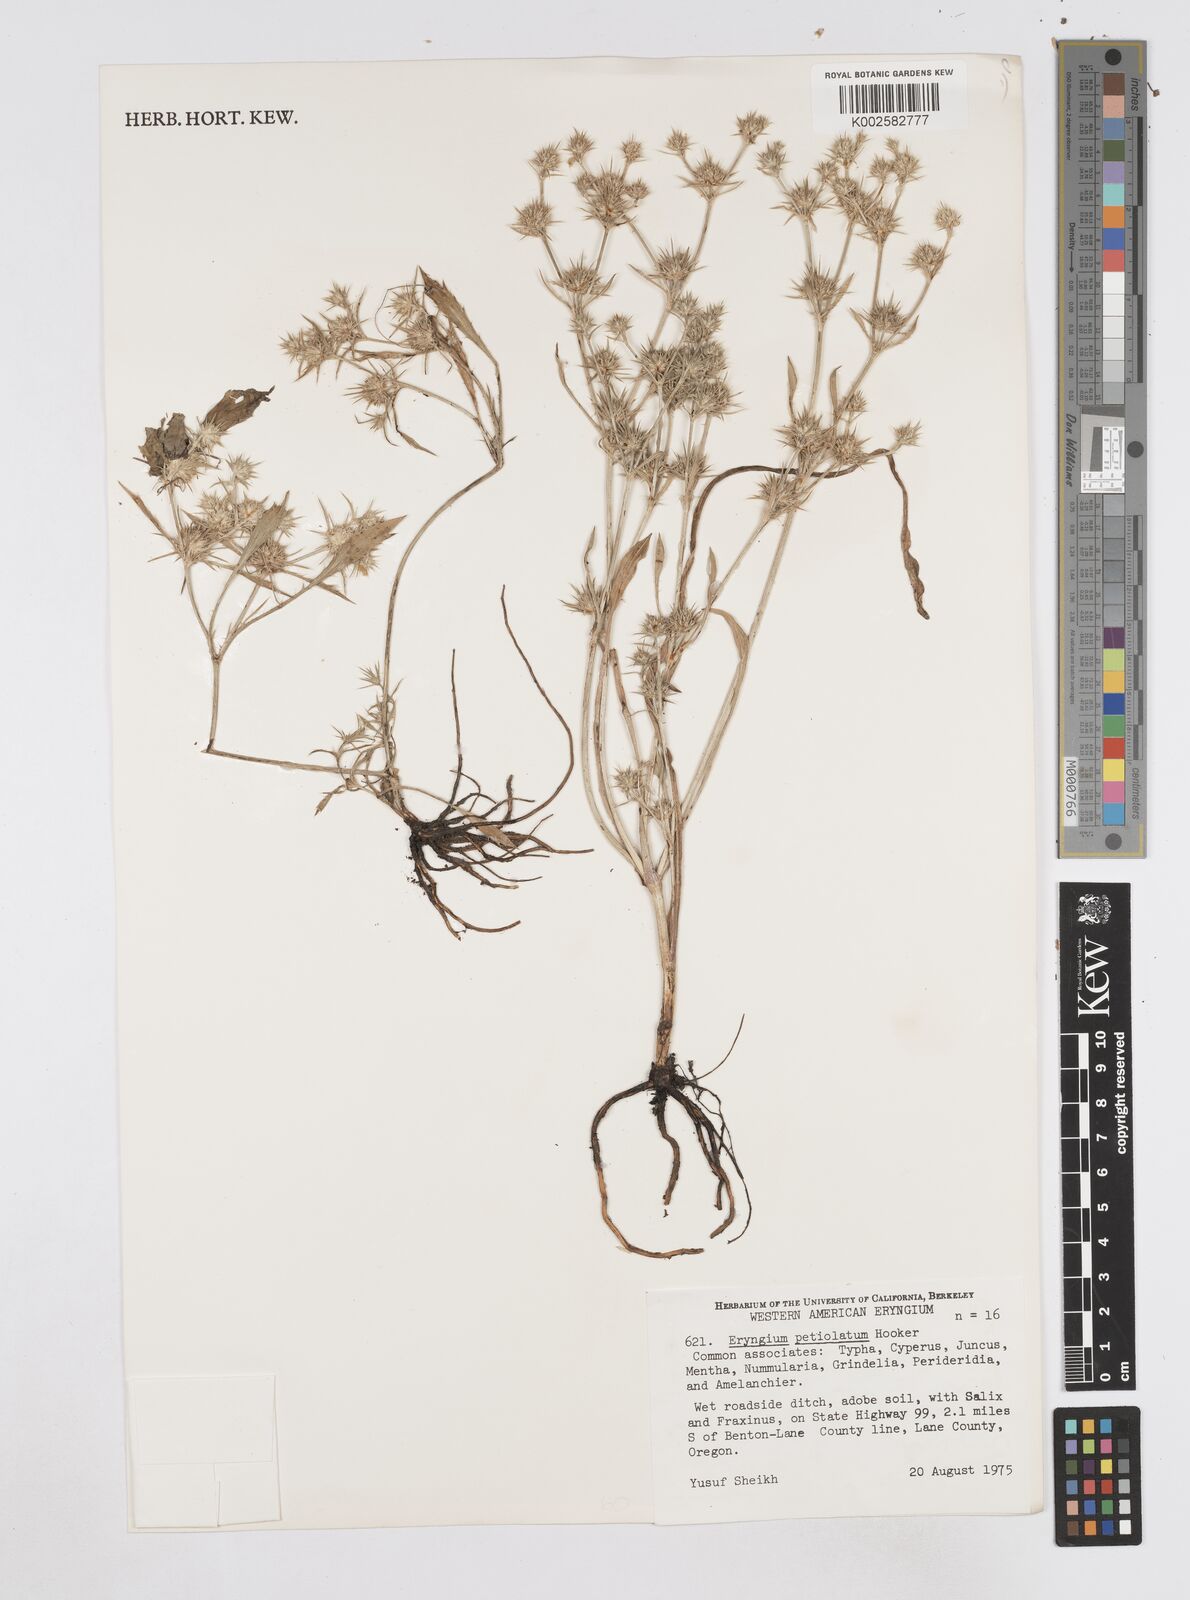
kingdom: Plantae
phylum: Tracheophyta
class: Magnoliopsida
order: Apiales
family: Apiaceae
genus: Eryngium
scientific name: Eryngium petiolatum
